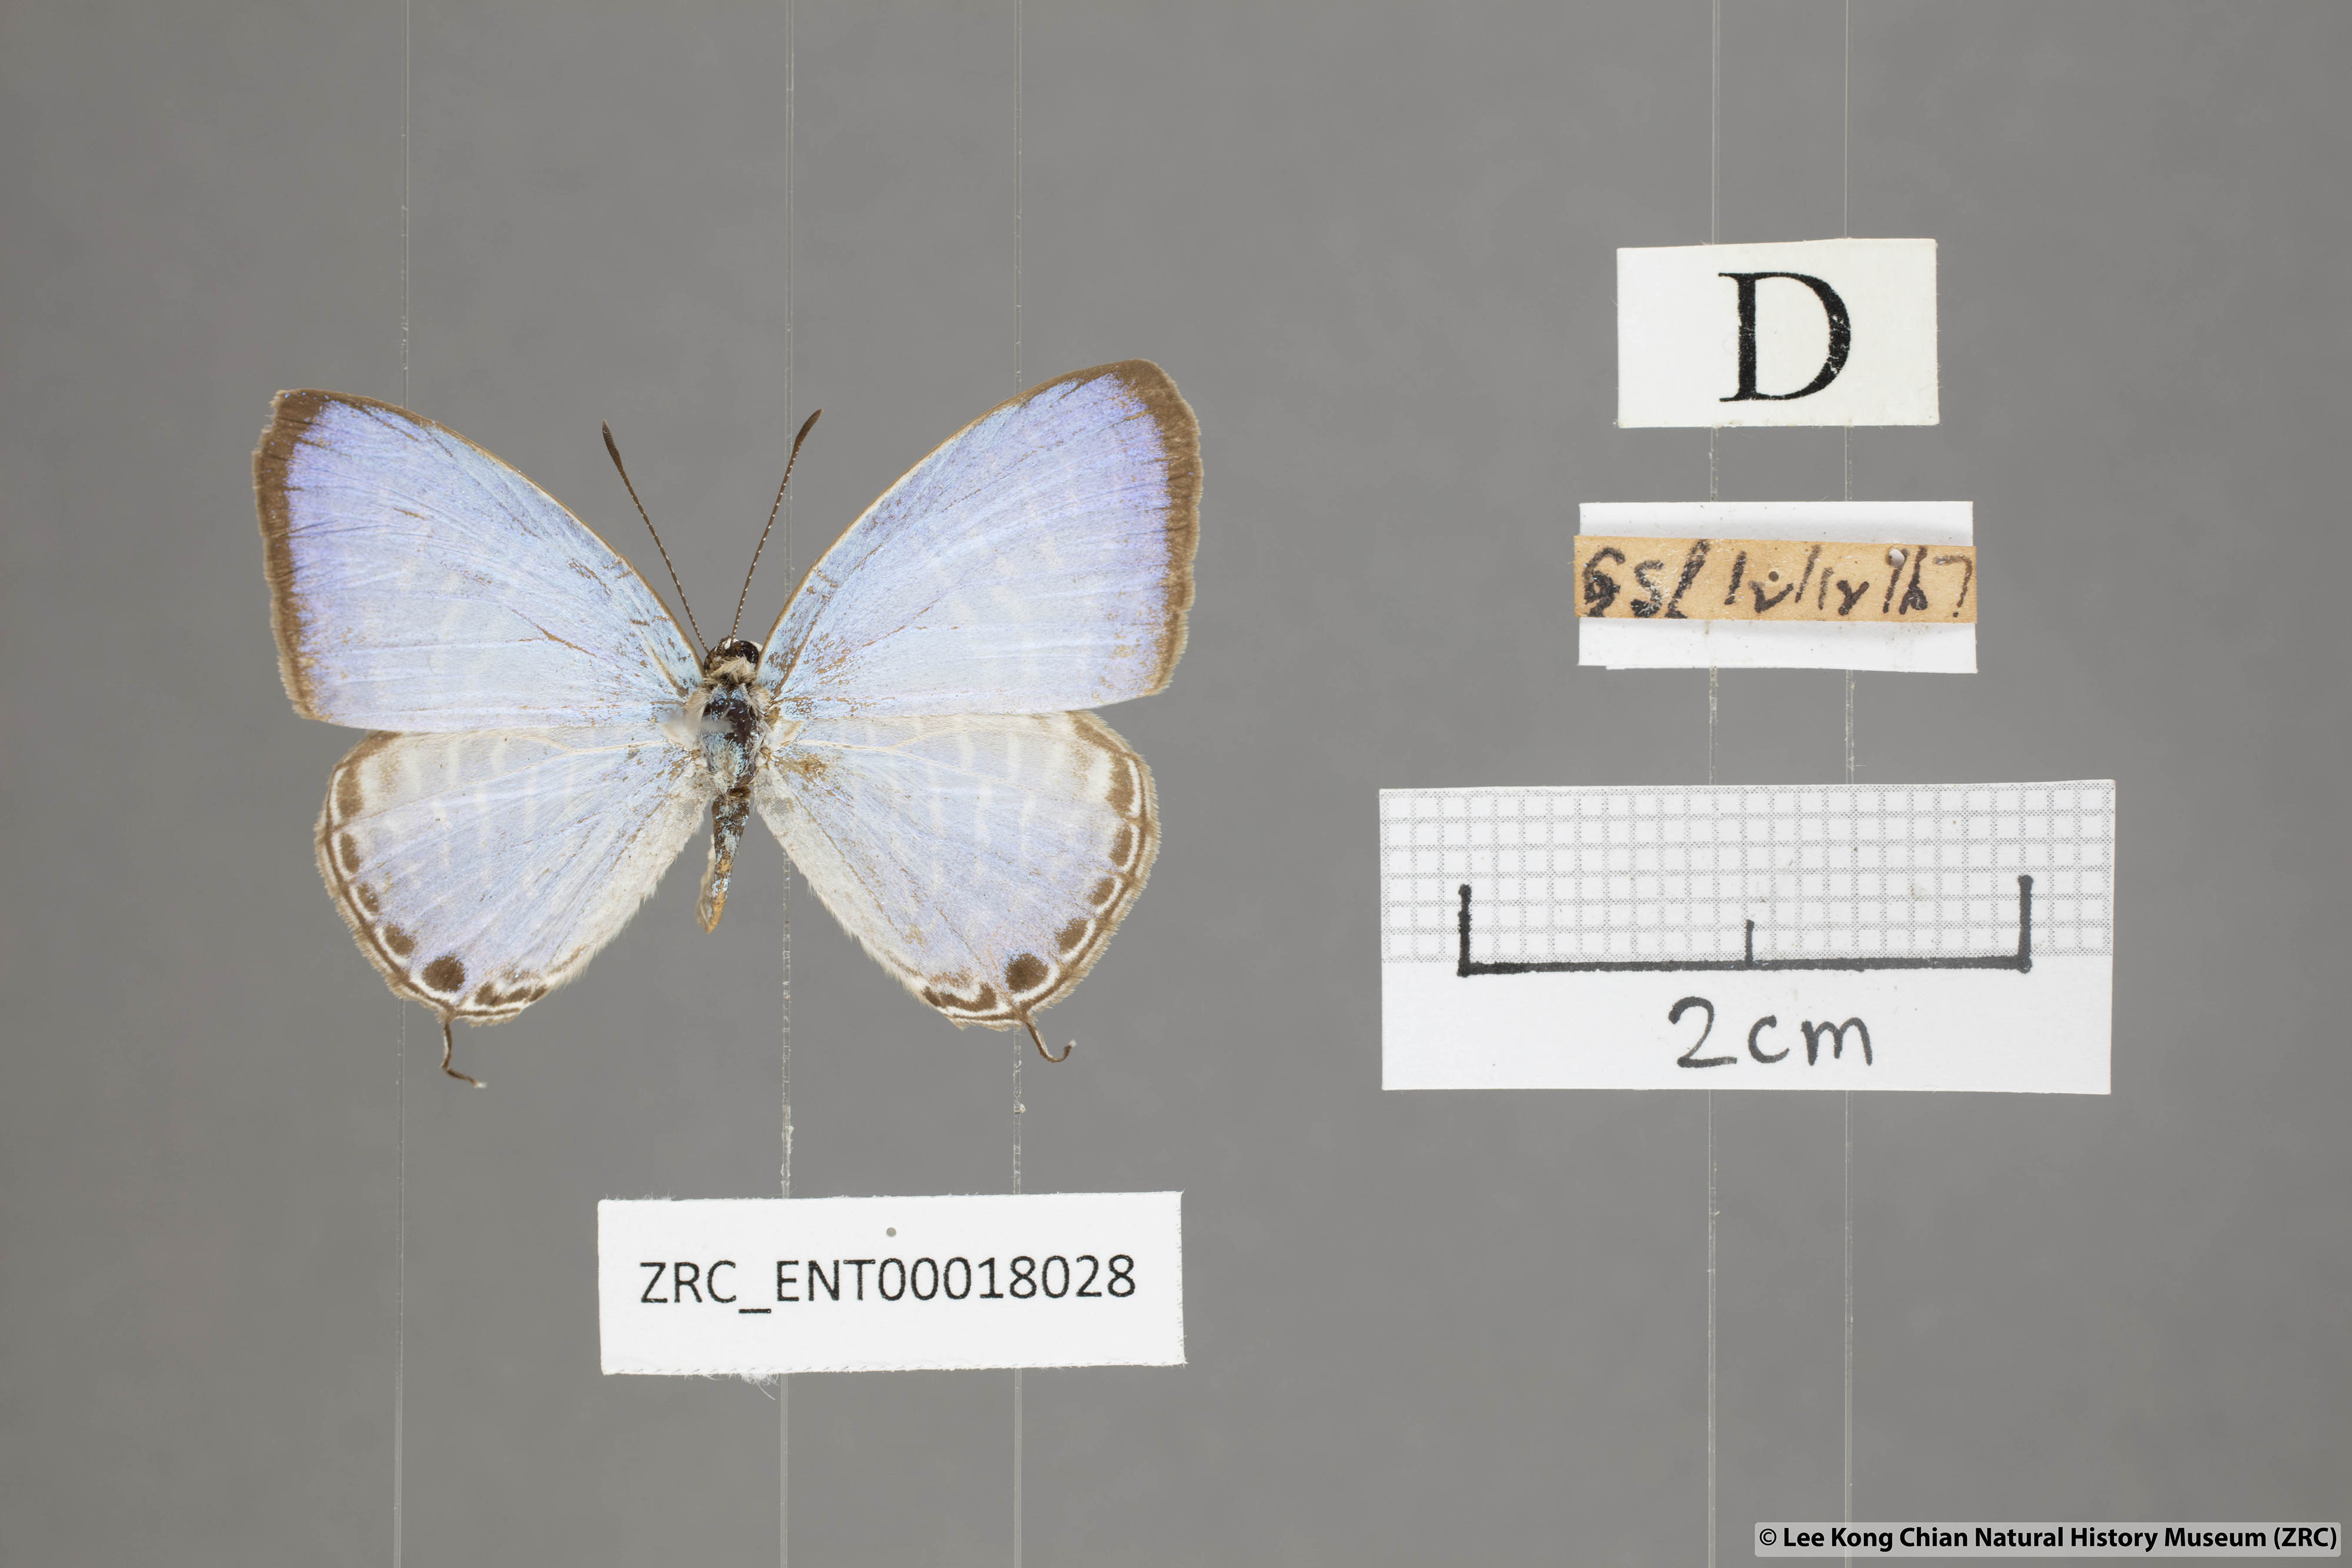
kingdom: Animalia
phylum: Arthropoda
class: Insecta
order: Lepidoptera
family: Lycaenidae
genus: Jamides
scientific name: Jamides alecto
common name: Metallic cerulean
